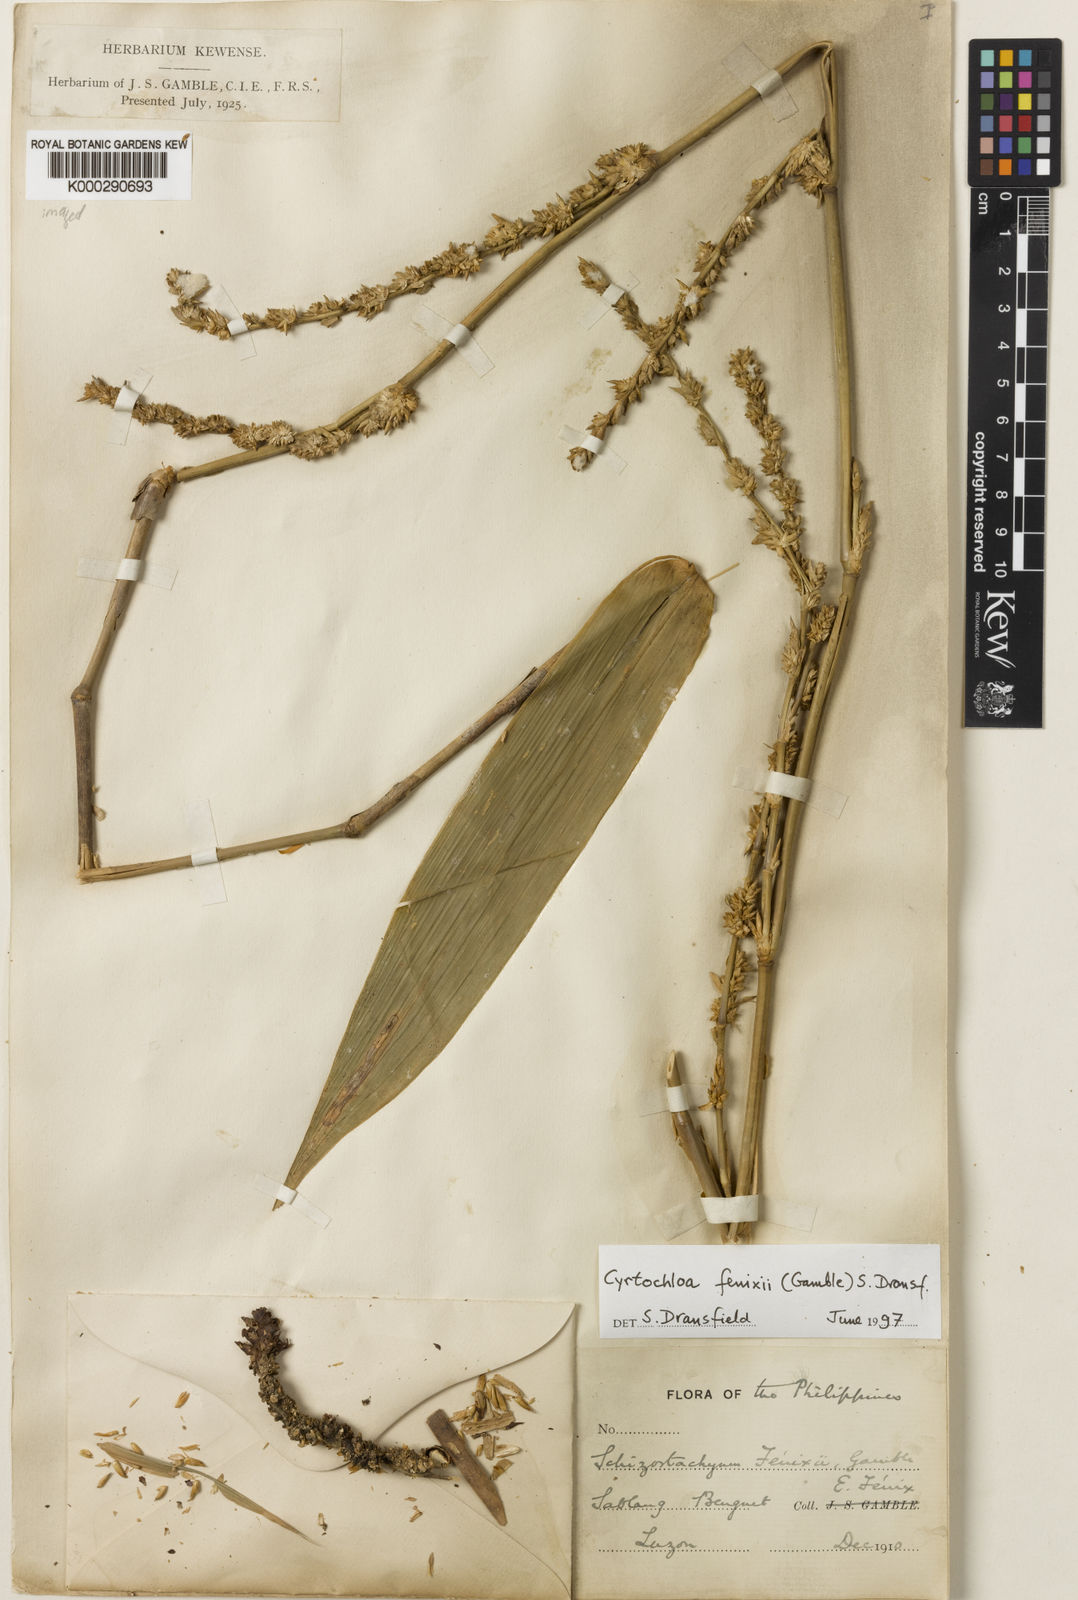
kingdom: Plantae
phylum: Tracheophyta
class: Liliopsida
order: Poales
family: Poaceae
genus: Cyrtochloa
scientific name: Cyrtochloa fenixii
